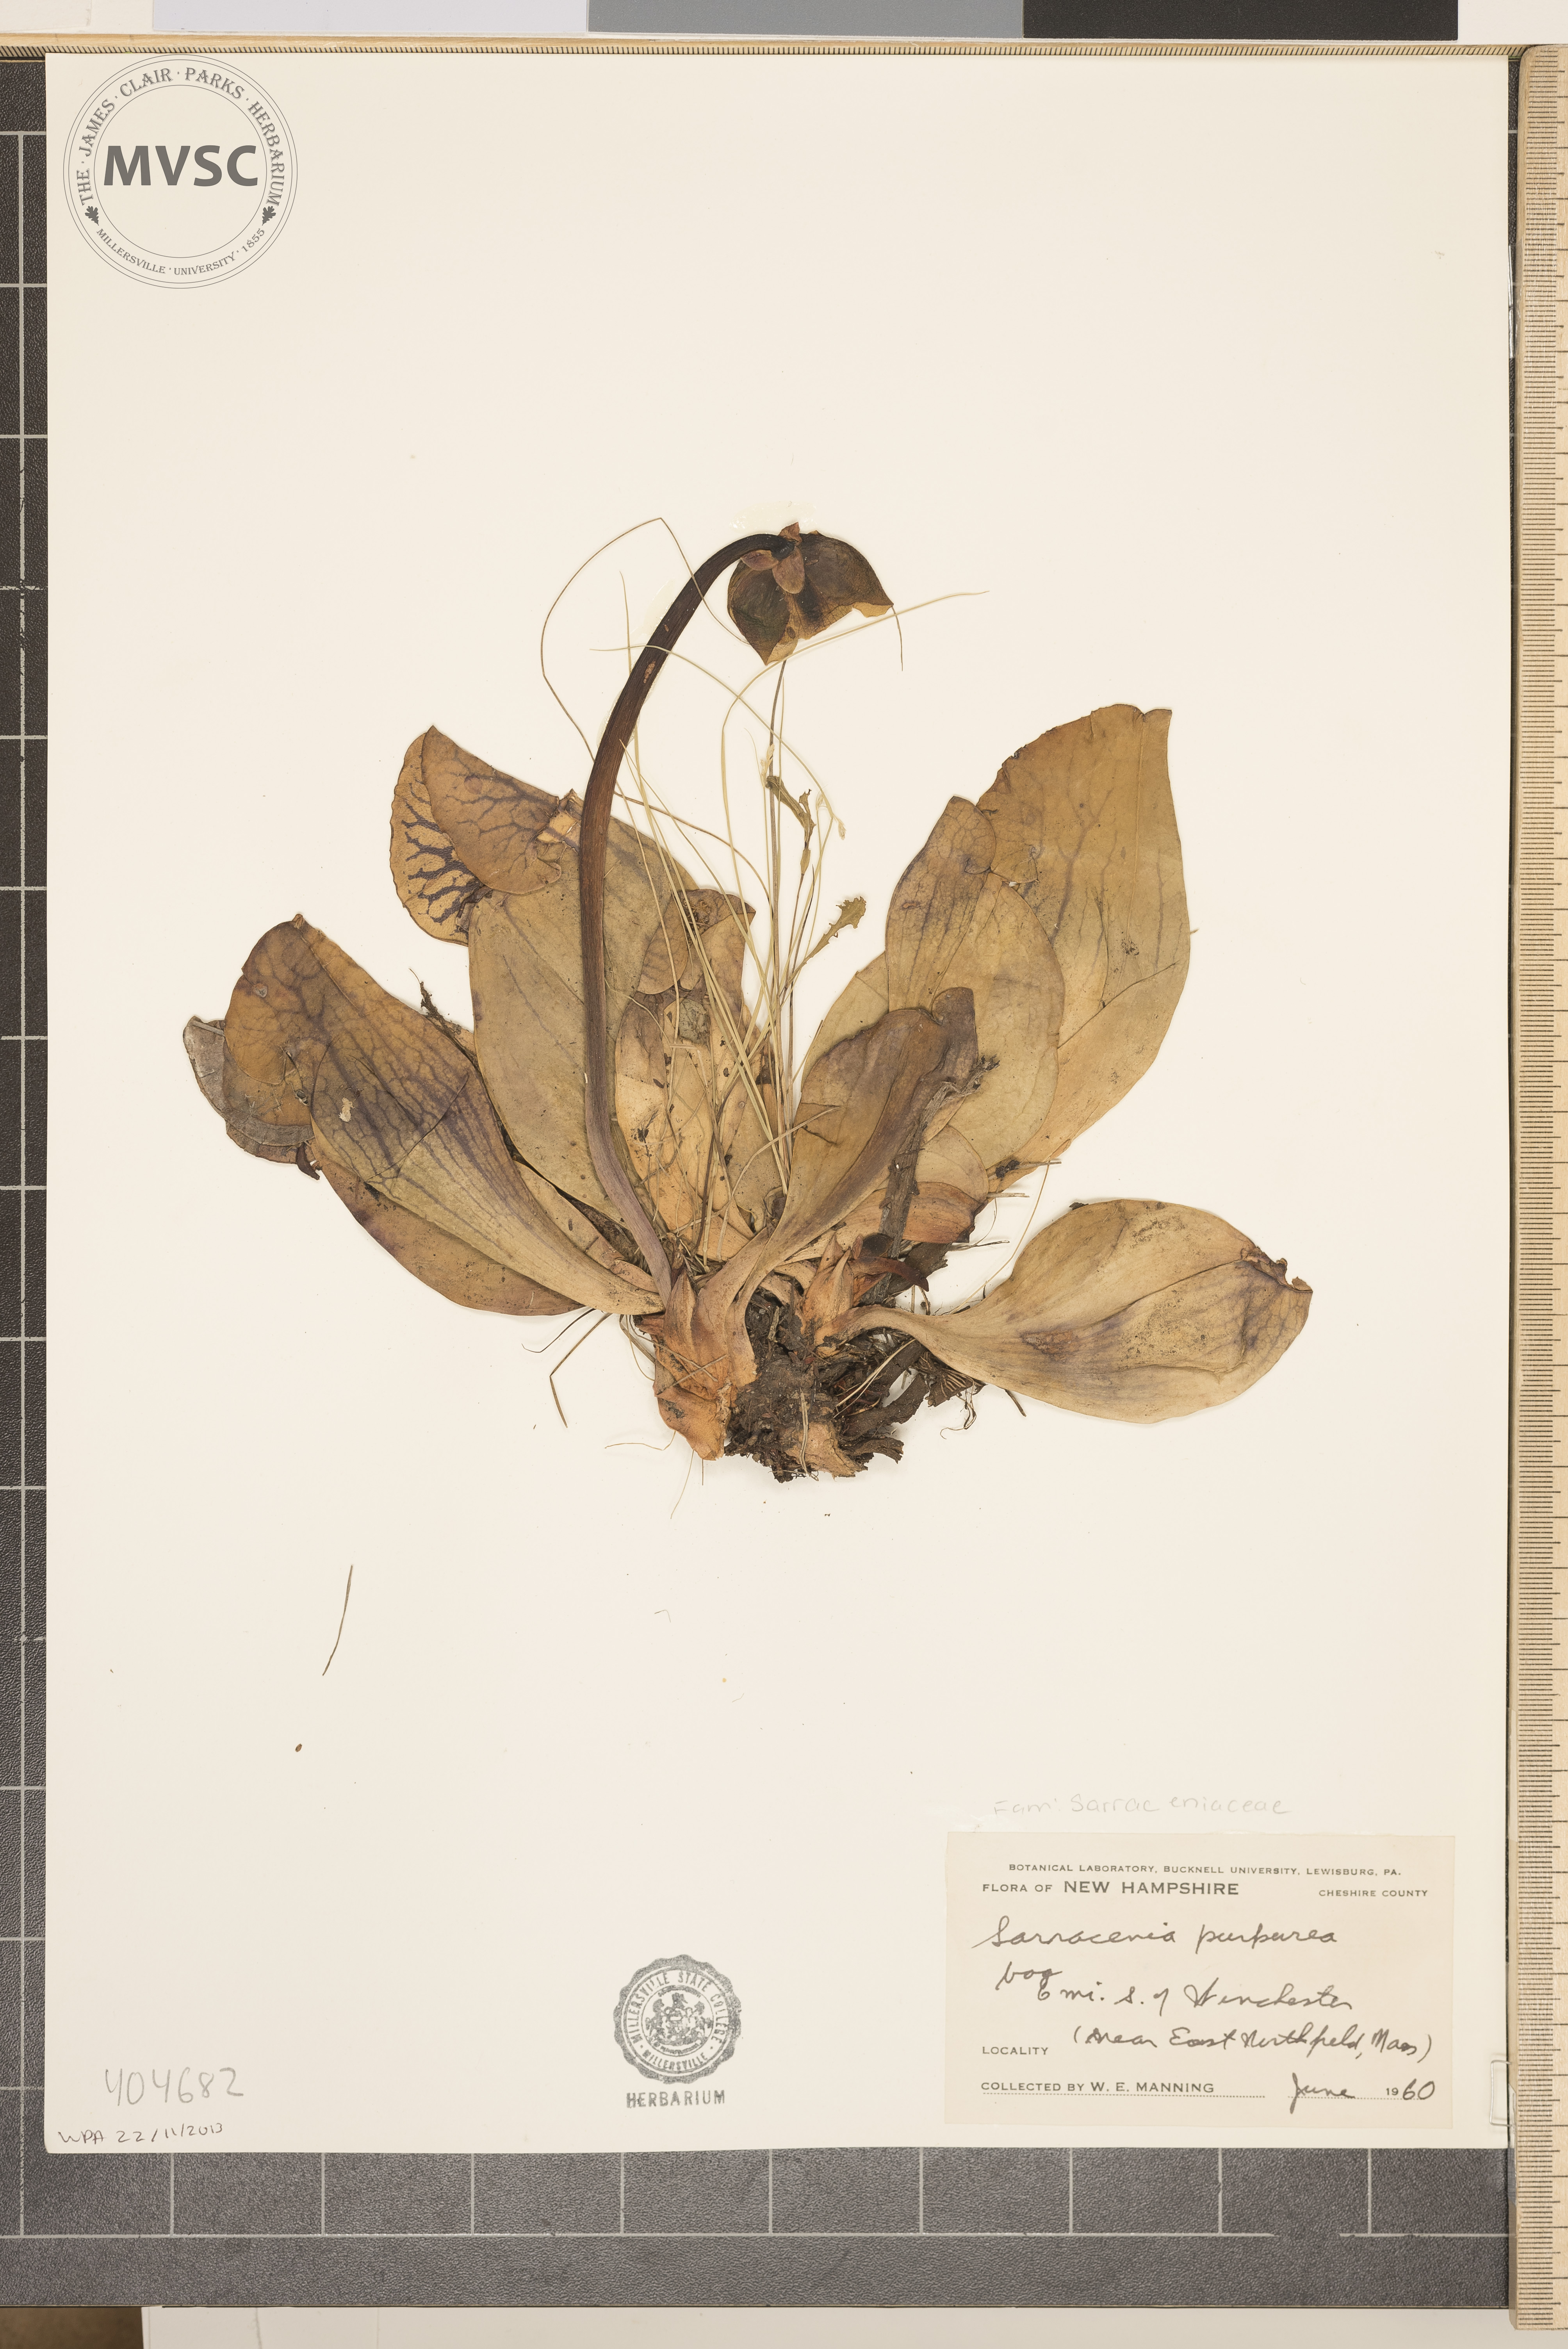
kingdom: Plantae
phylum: Tracheophyta
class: Magnoliopsida
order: Ericales
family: Sarraceniaceae
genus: Sarracenia
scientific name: Sarracenia purpurea
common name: pitcher plant
